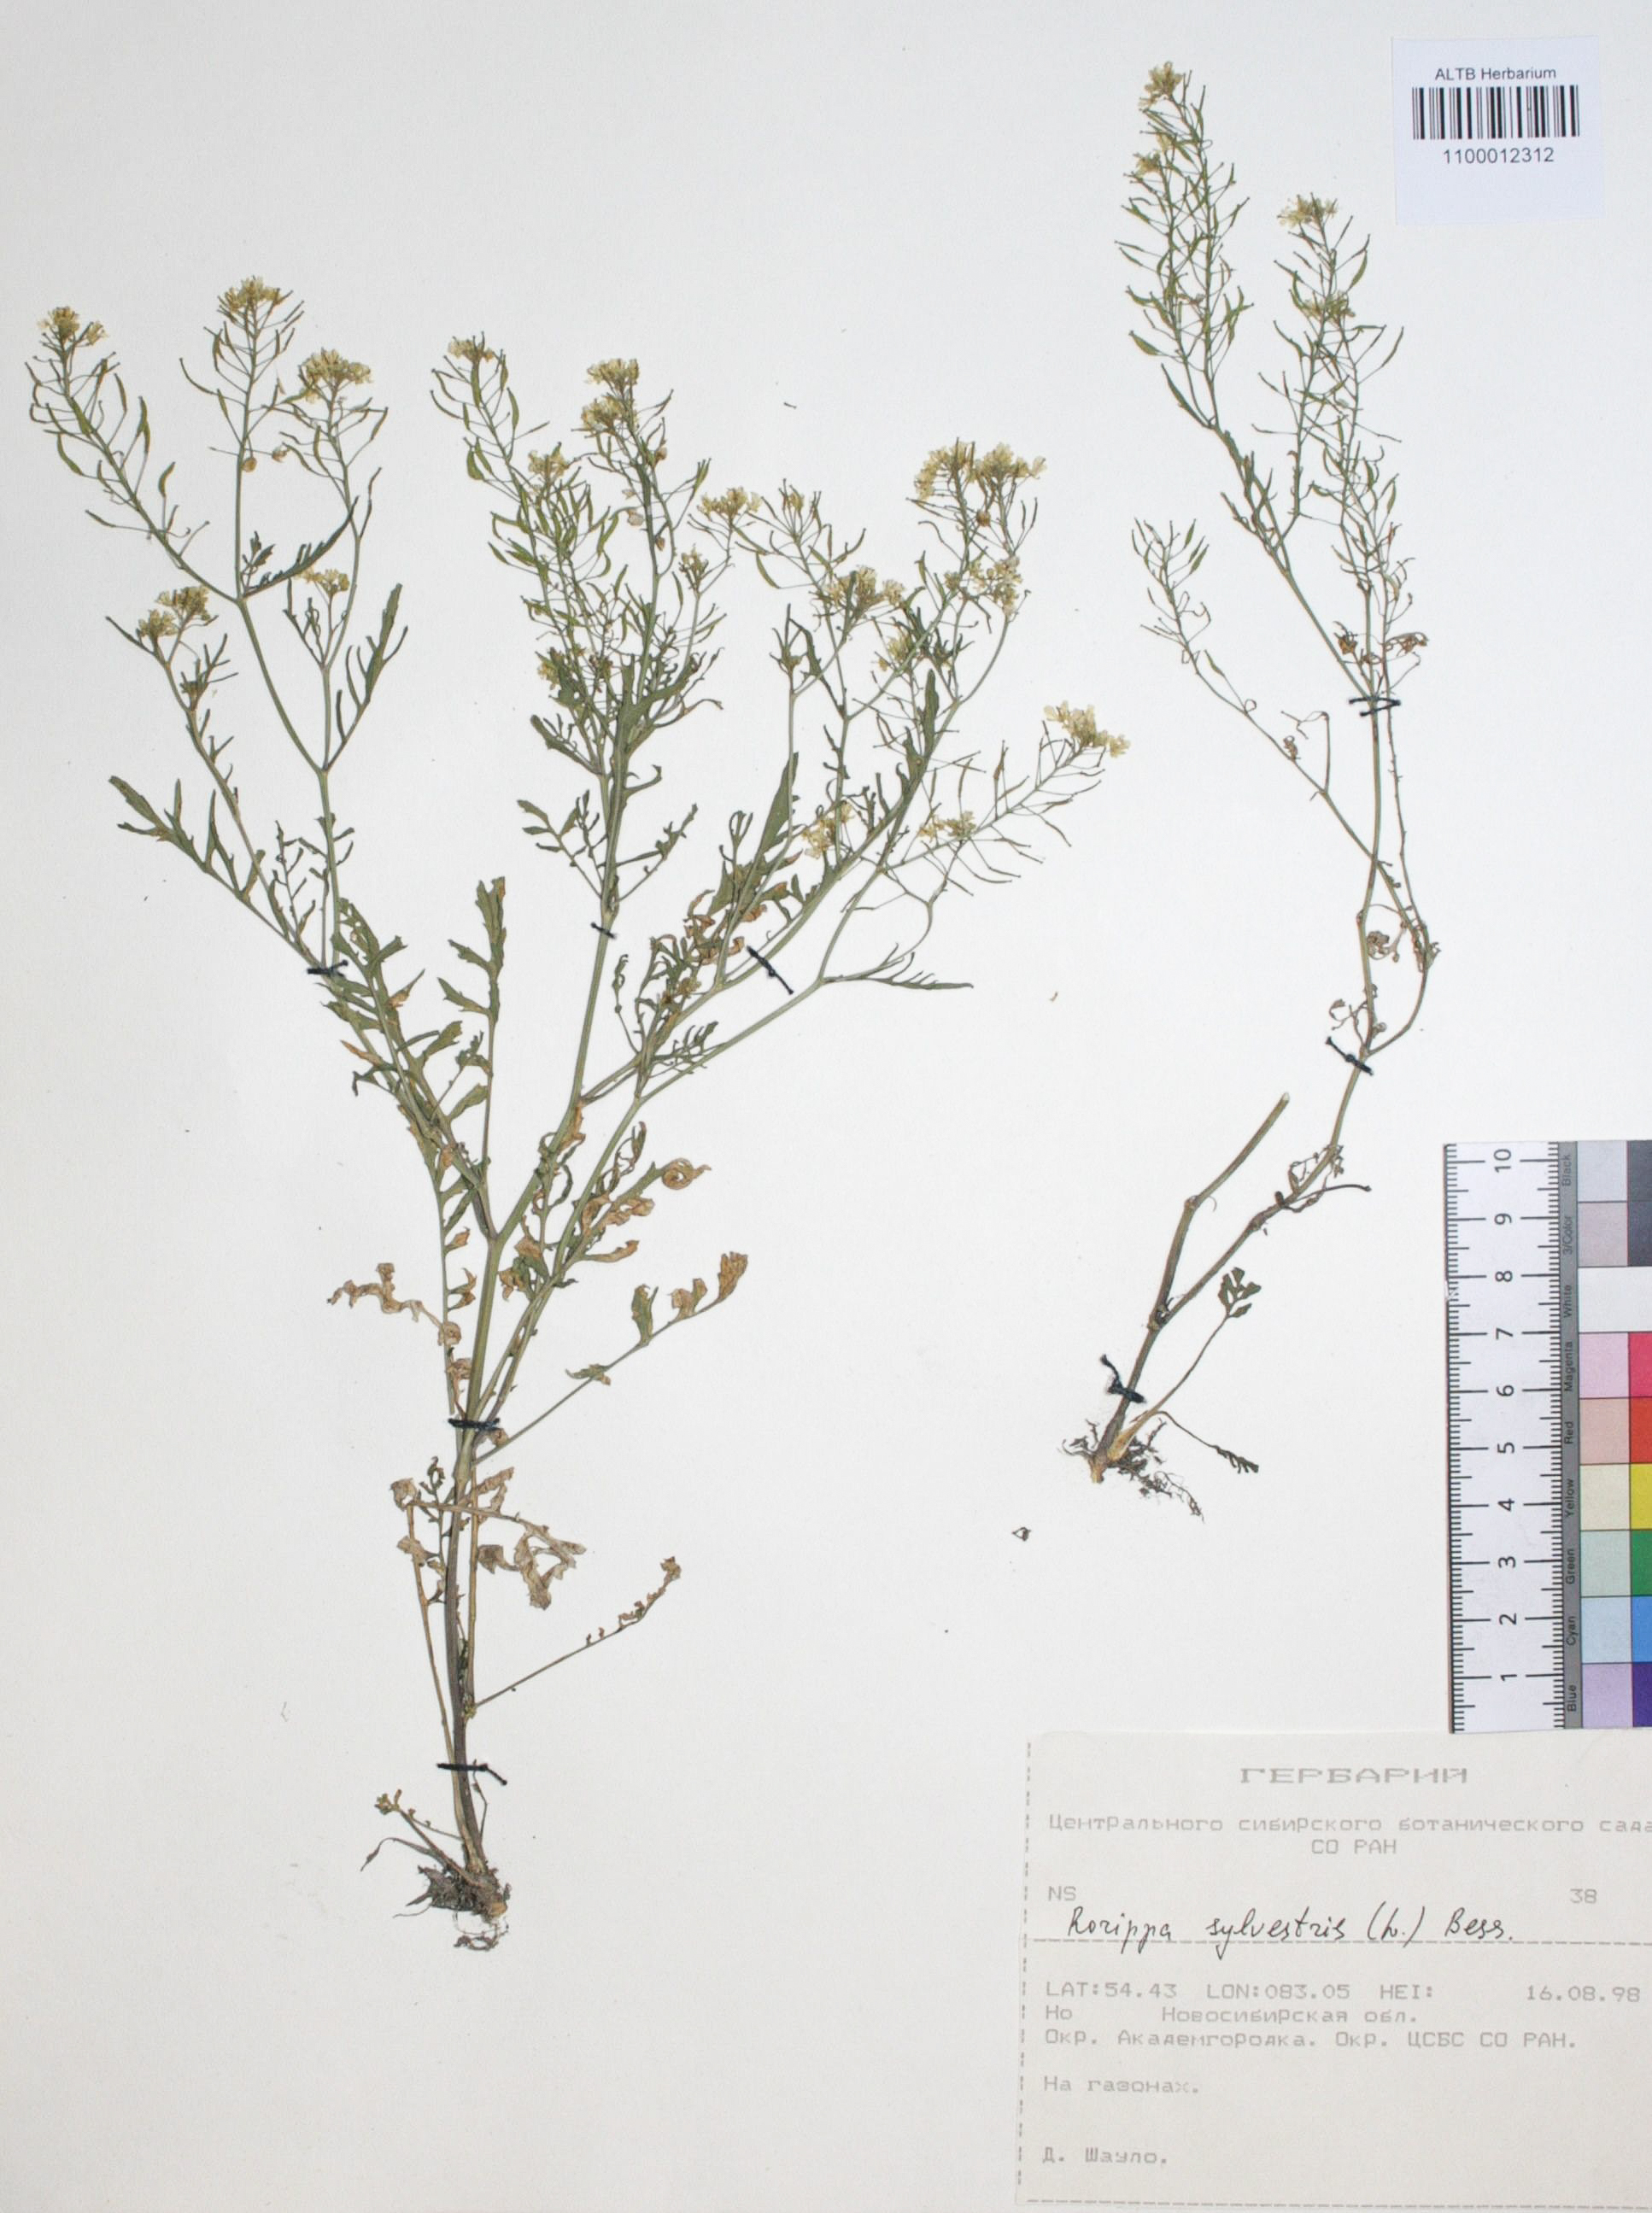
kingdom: Plantae
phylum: Tracheophyta
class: Magnoliopsida
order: Brassicales
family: Brassicaceae
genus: Rorippa
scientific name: Rorippa sylvestris
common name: Creeping yellowcress
